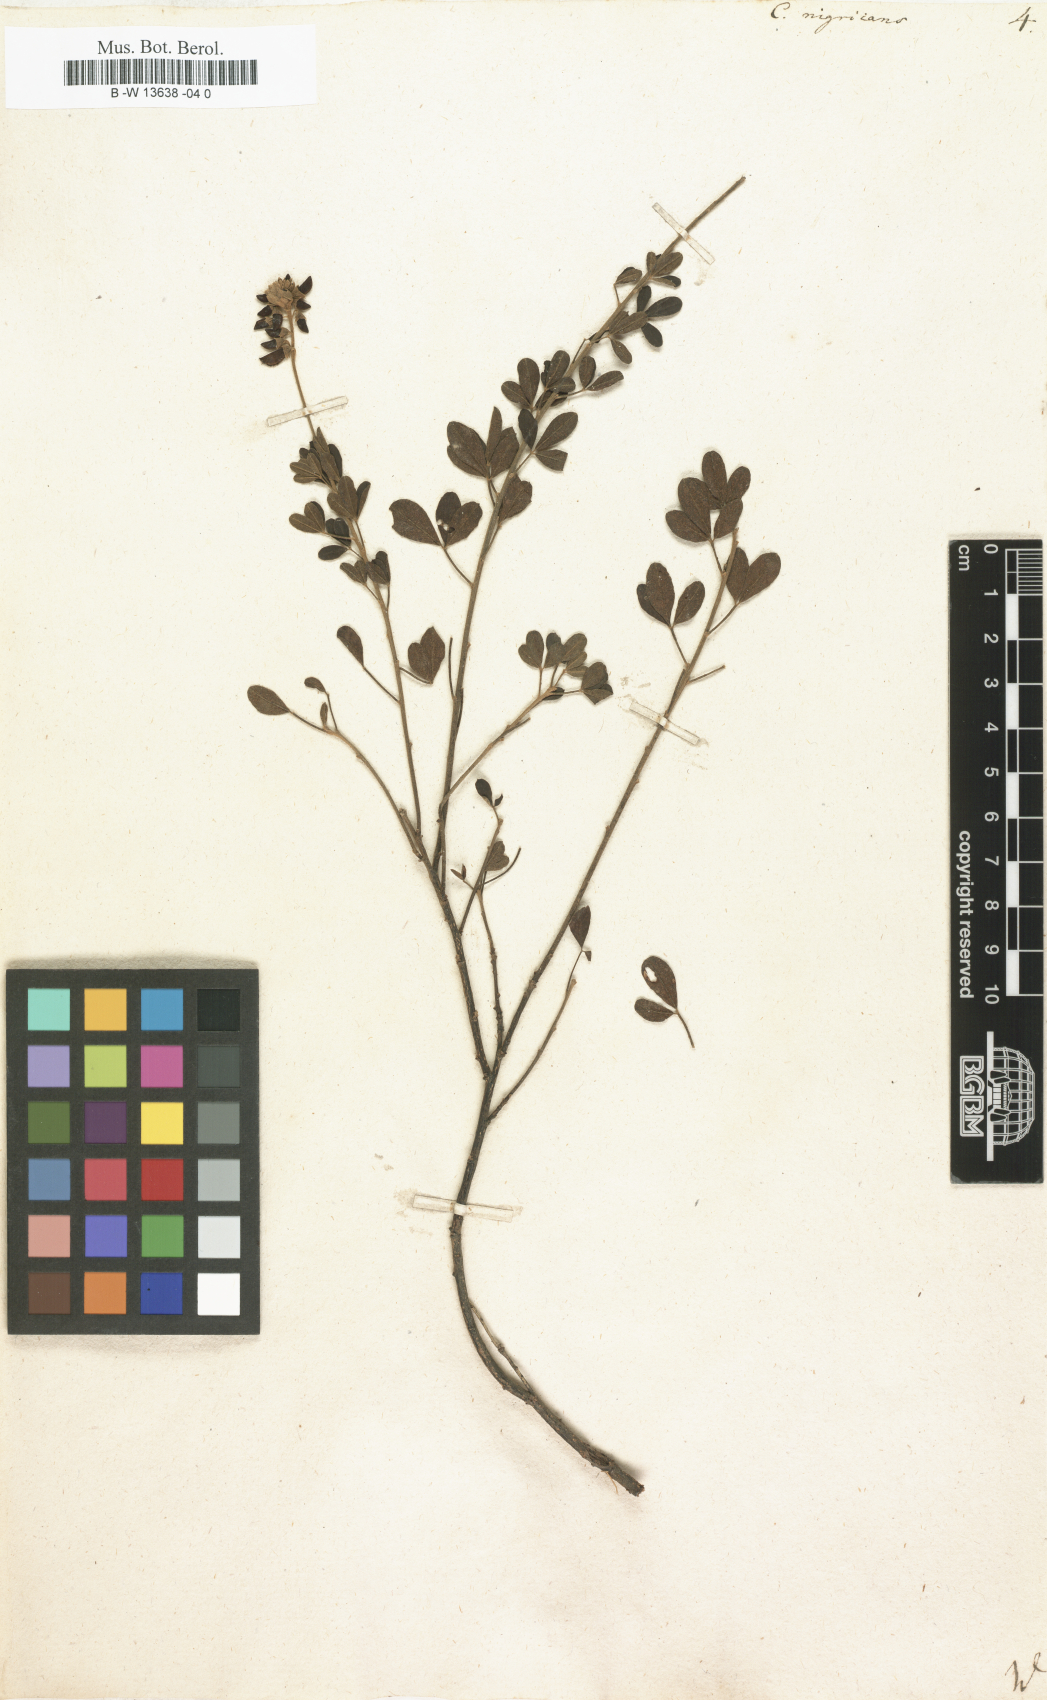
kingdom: Plantae
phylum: Tracheophyta
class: Magnoliopsida
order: Fabales
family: Fabaceae
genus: Cytisus
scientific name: Cytisus nigricans
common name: Black broom
